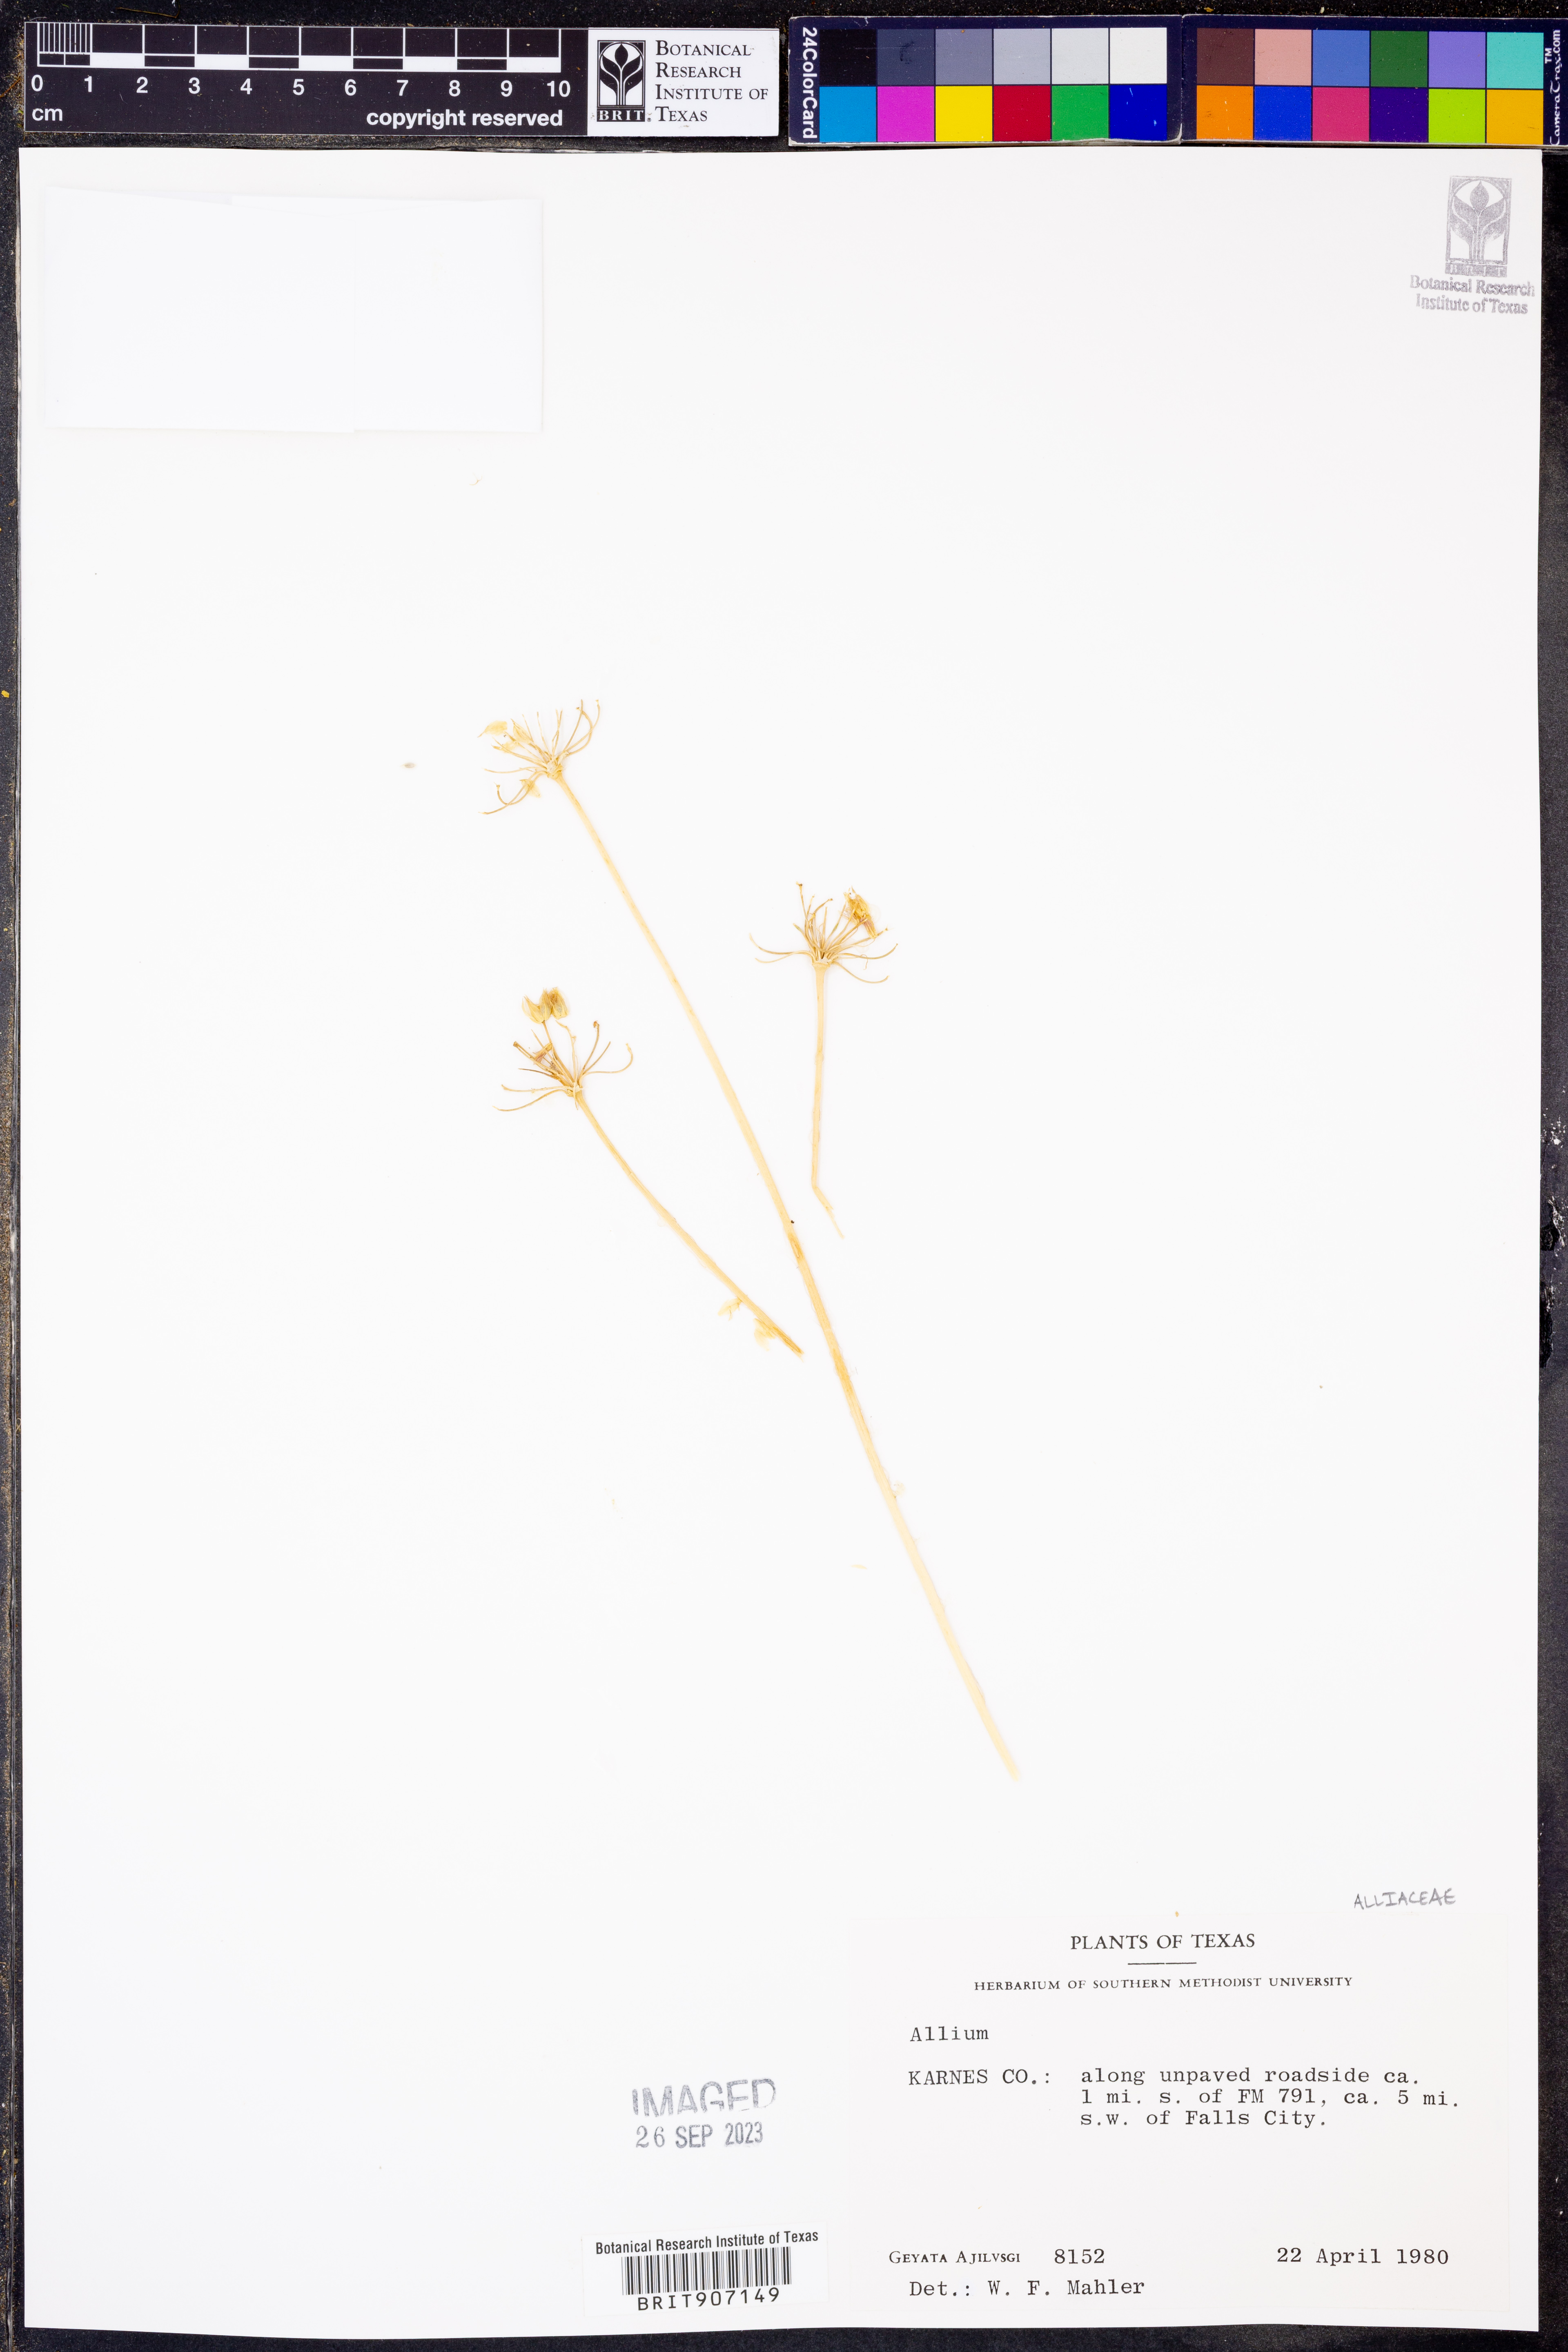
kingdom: Plantae
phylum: Tracheophyta
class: Liliopsida
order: Asparagales
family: Amaryllidaceae
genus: Allium
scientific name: Allium
